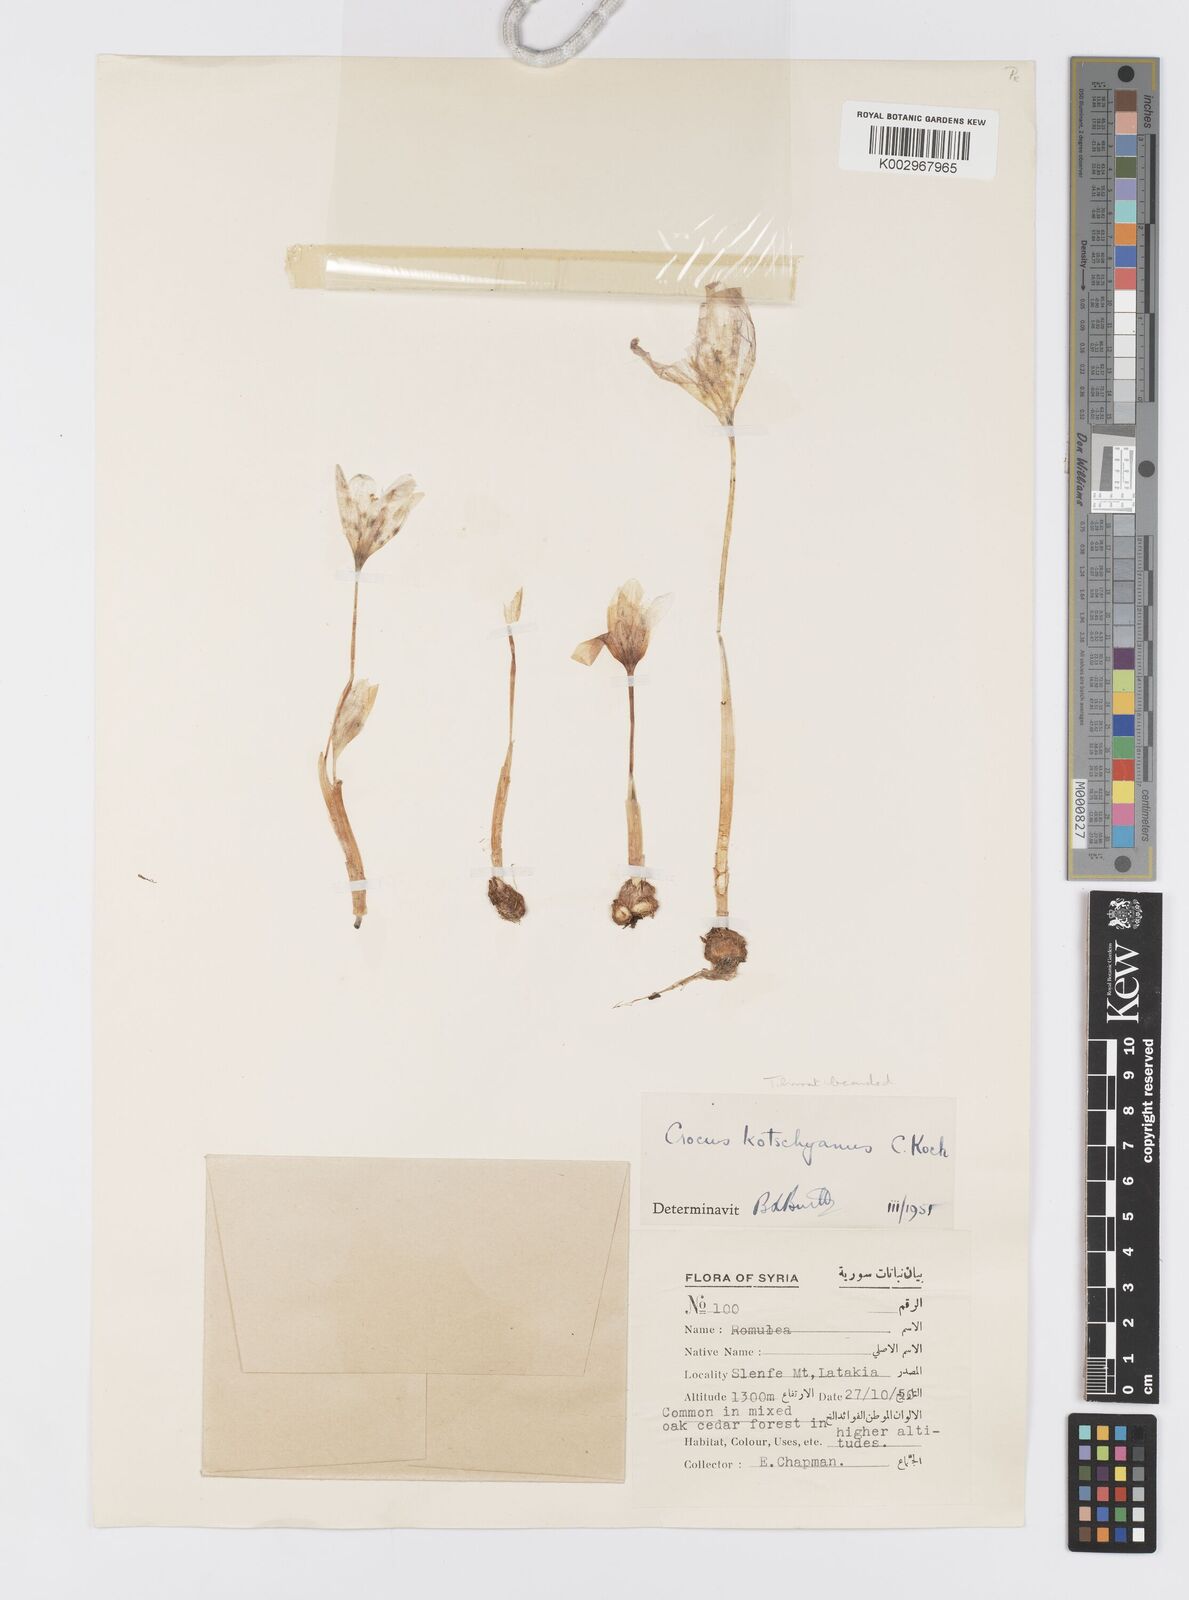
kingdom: Plantae
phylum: Tracheophyta
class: Liliopsida
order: Asparagales
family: Iridaceae
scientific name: Iridaceae
